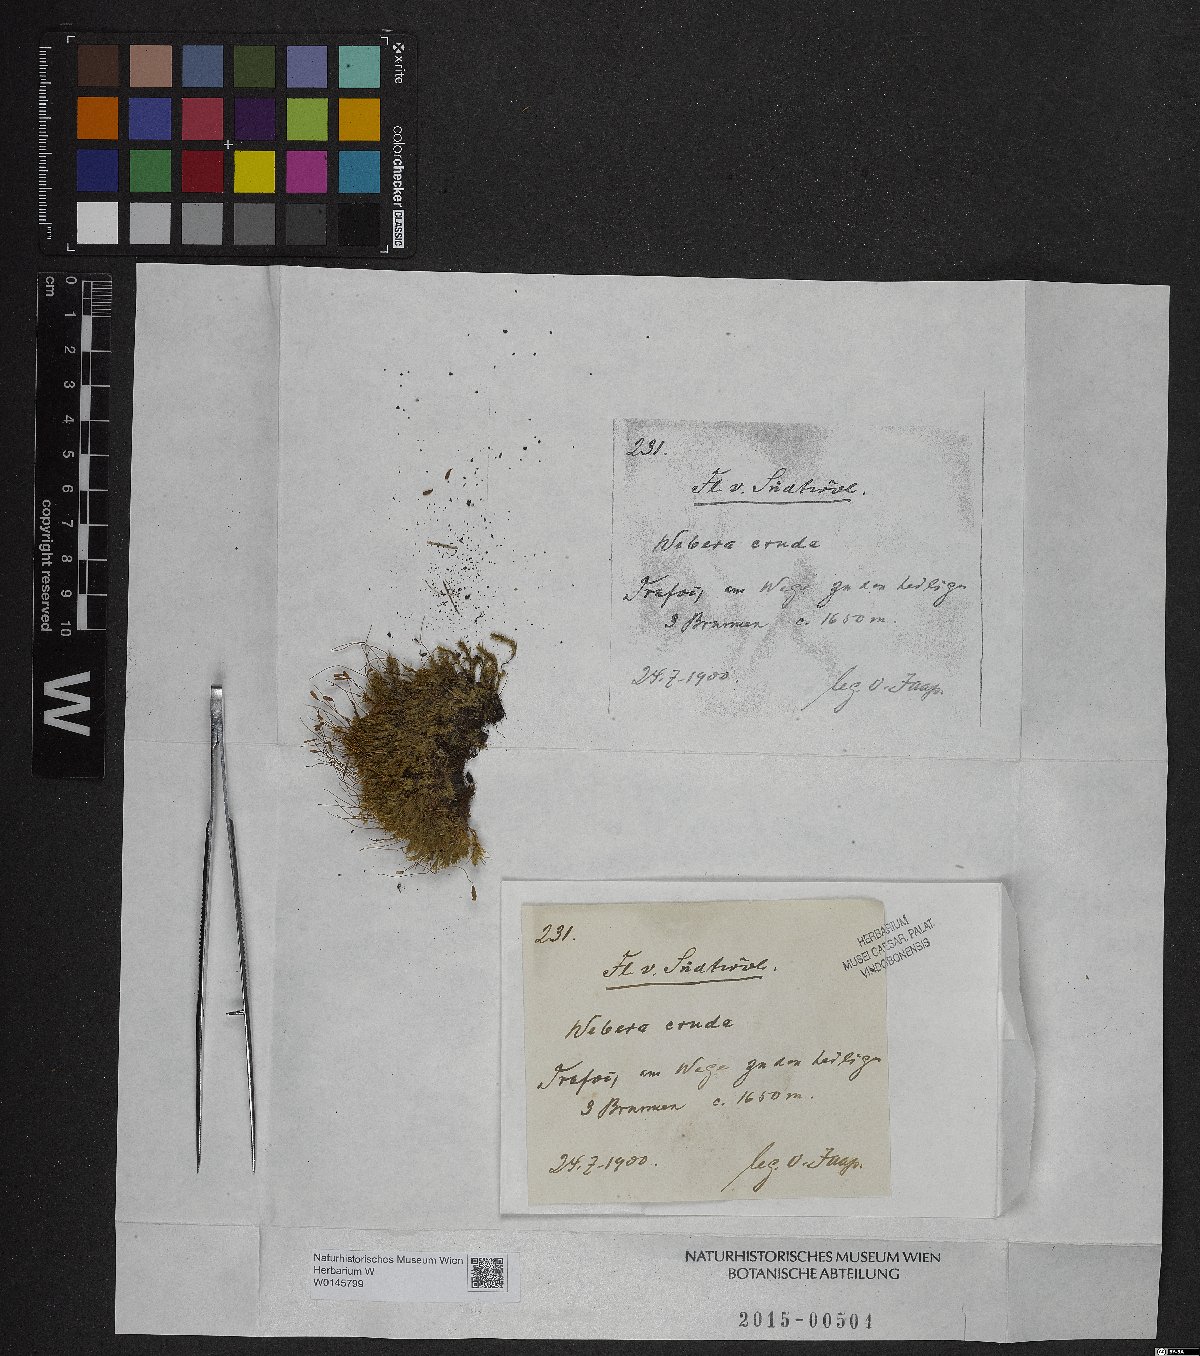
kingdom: Plantae
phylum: Bryophyta
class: Bryopsida
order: Bryales
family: Mniaceae
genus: Pohlia
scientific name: Pohlia cruda
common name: Opal nodding moss
